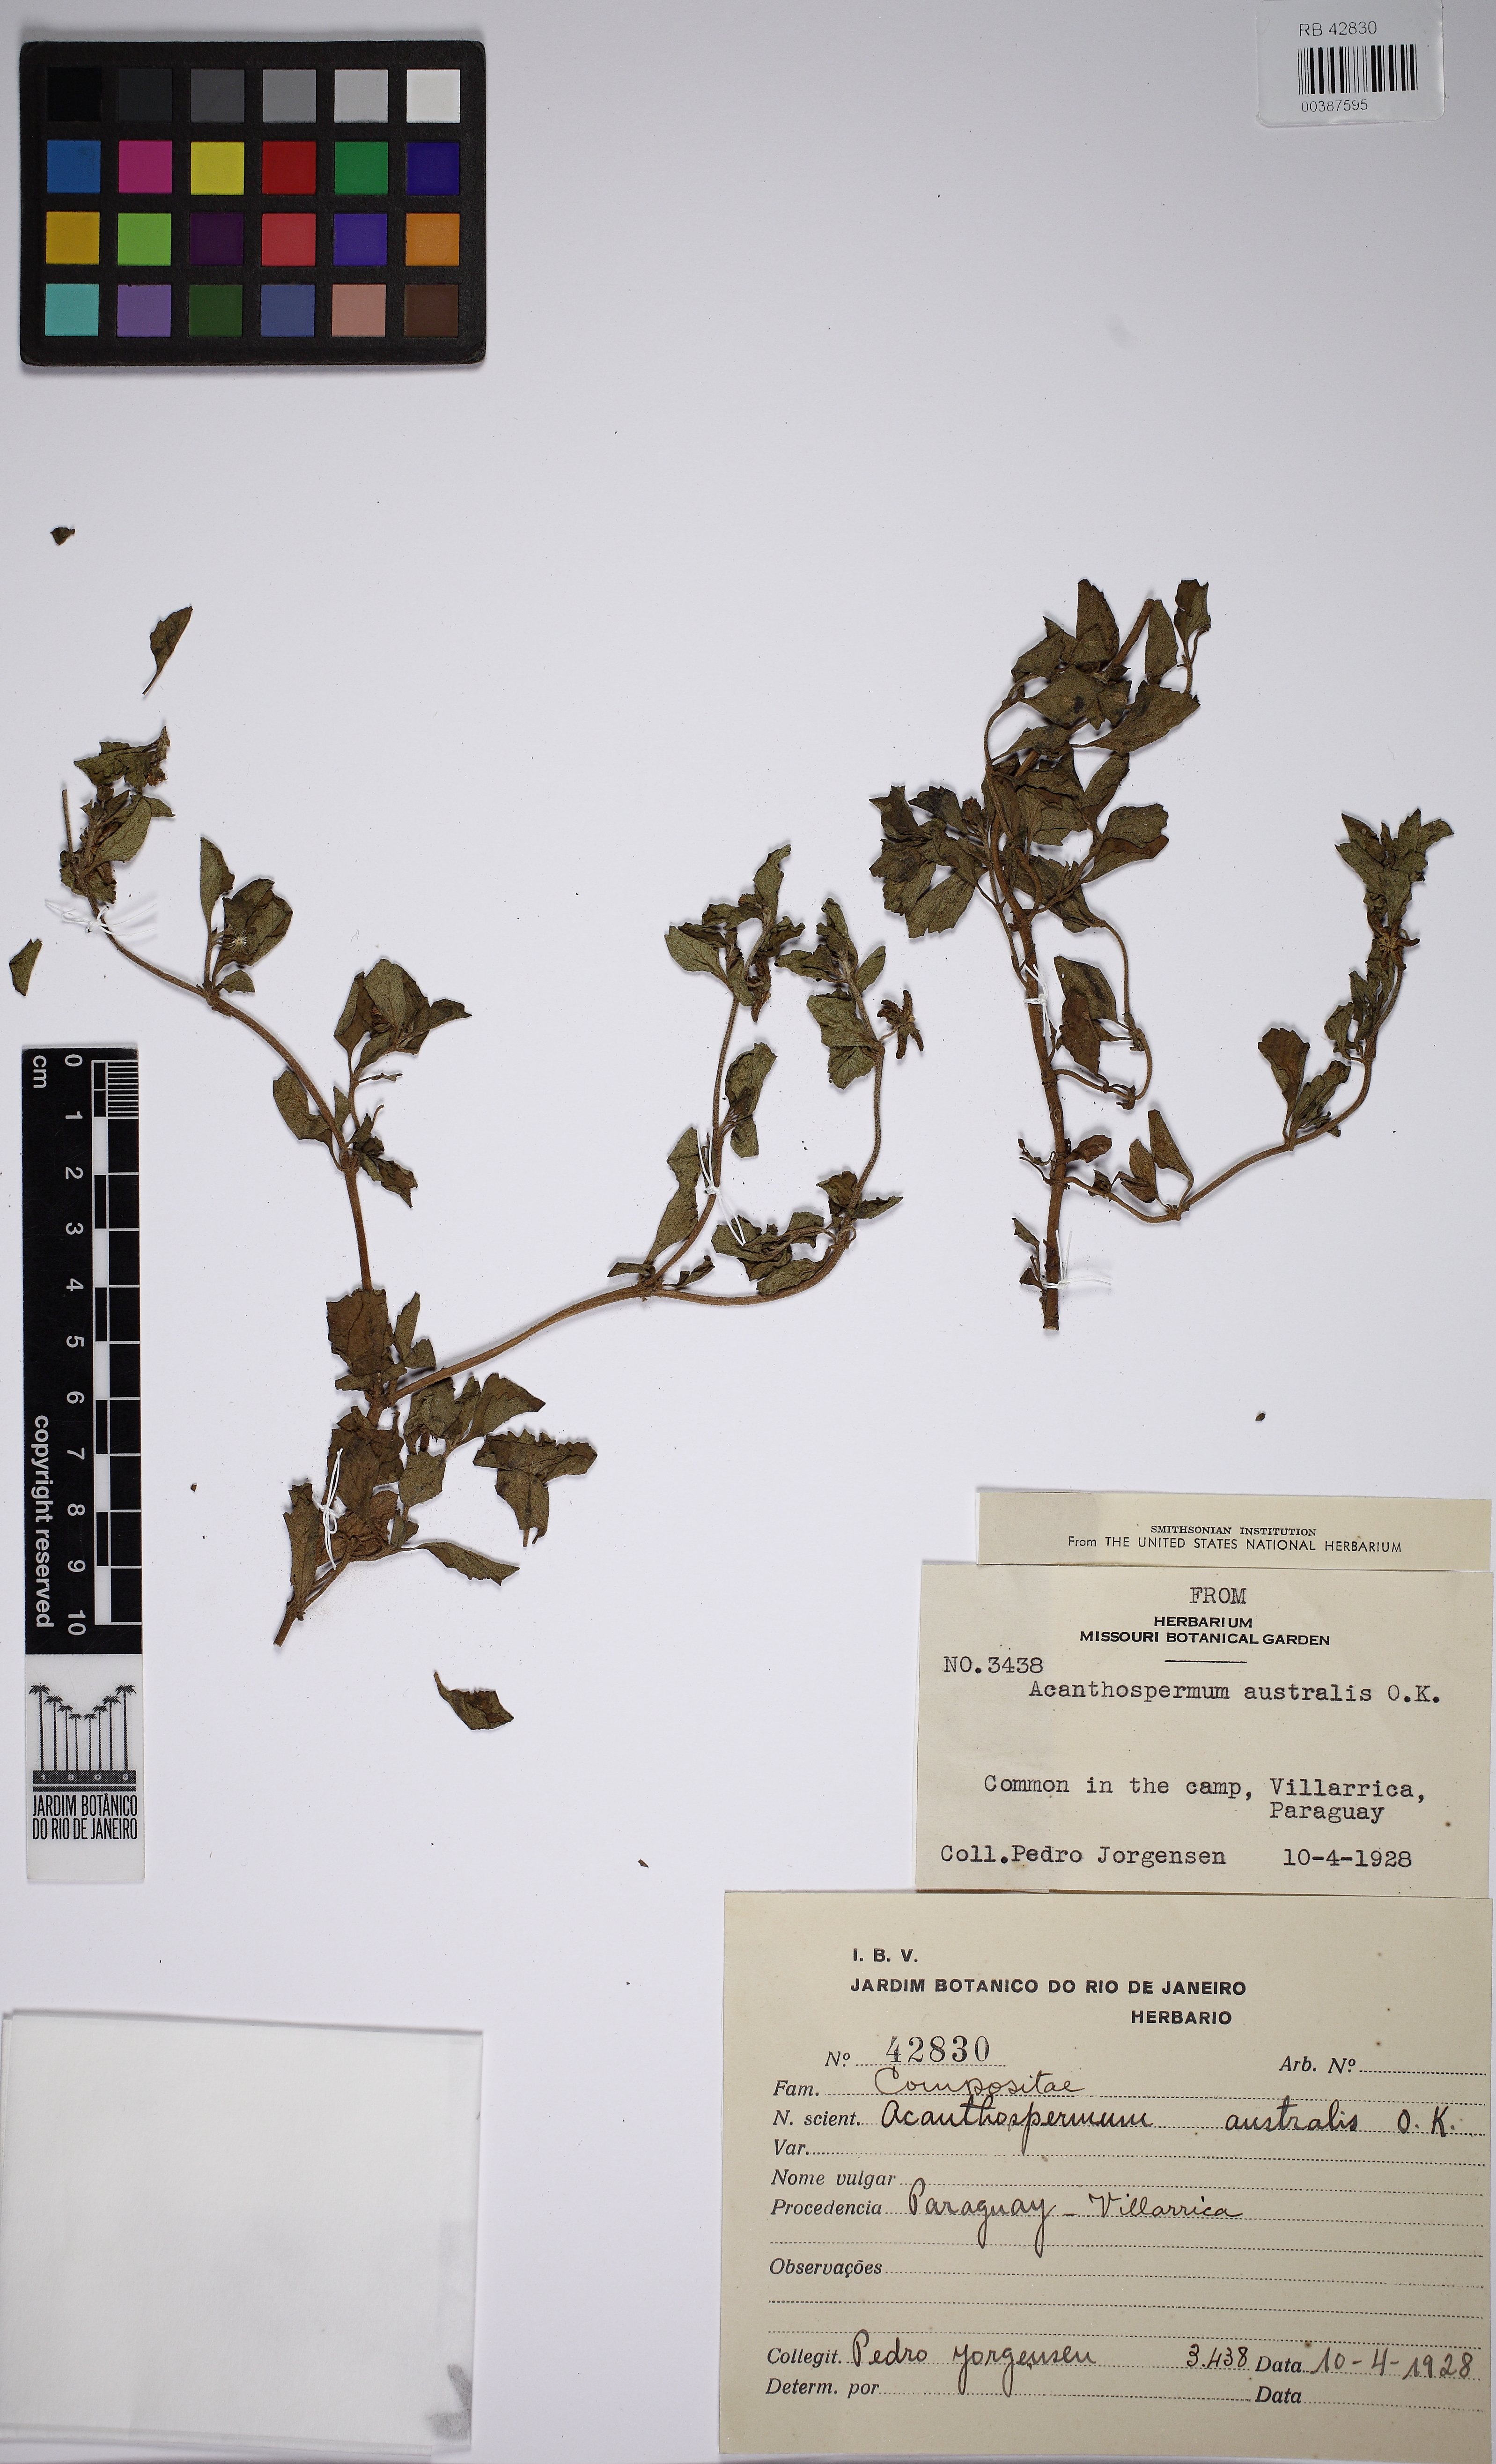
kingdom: Plantae
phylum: Tracheophyta
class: Magnoliopsida
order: Asterales
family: Asteraceae
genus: Acanthospermum
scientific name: Acanthospermum australe
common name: Paraguayan starbur
